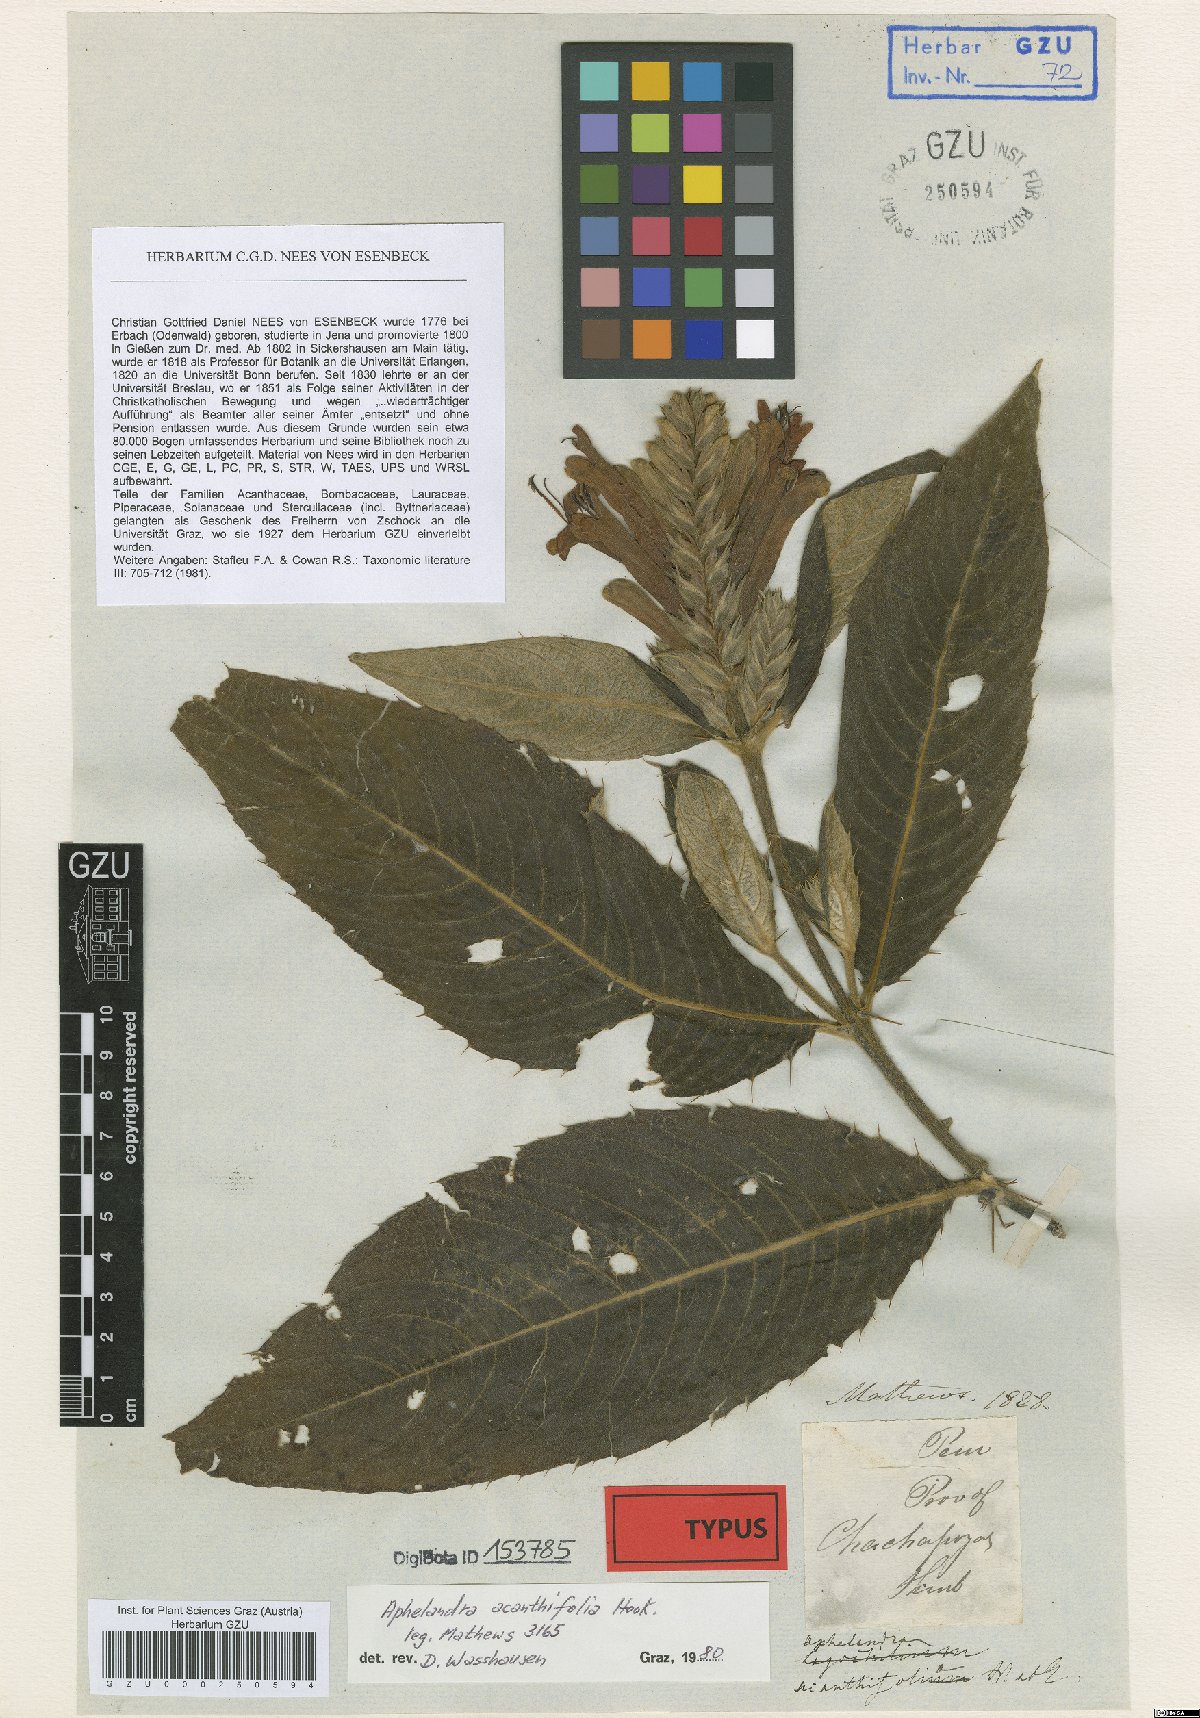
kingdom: Plantae
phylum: Tracheophyta
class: Magnoliopsida
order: Lamiales
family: Acanthaceae
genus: Aphelandra
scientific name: Aphelandra acanthifolia
